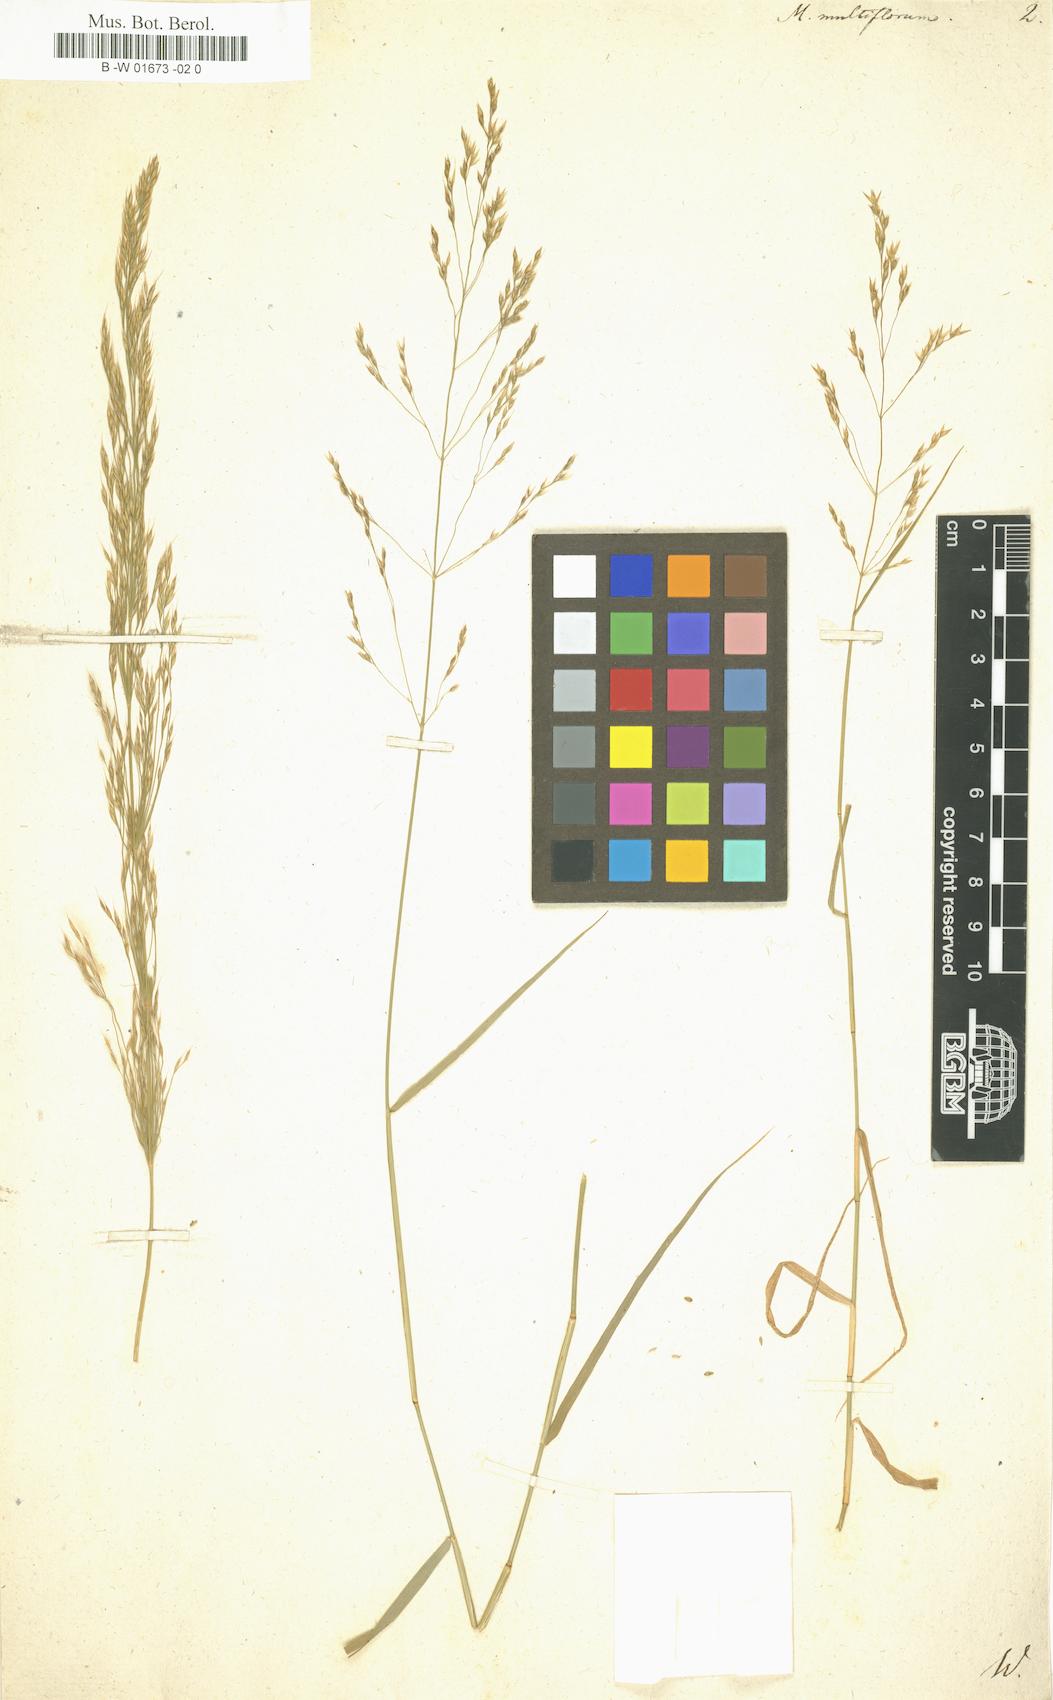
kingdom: Plantae
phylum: Tracheophyta
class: Liliopsida
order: Poales
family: Poaceae
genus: Oloptum
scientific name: Oloptum miliaceum
